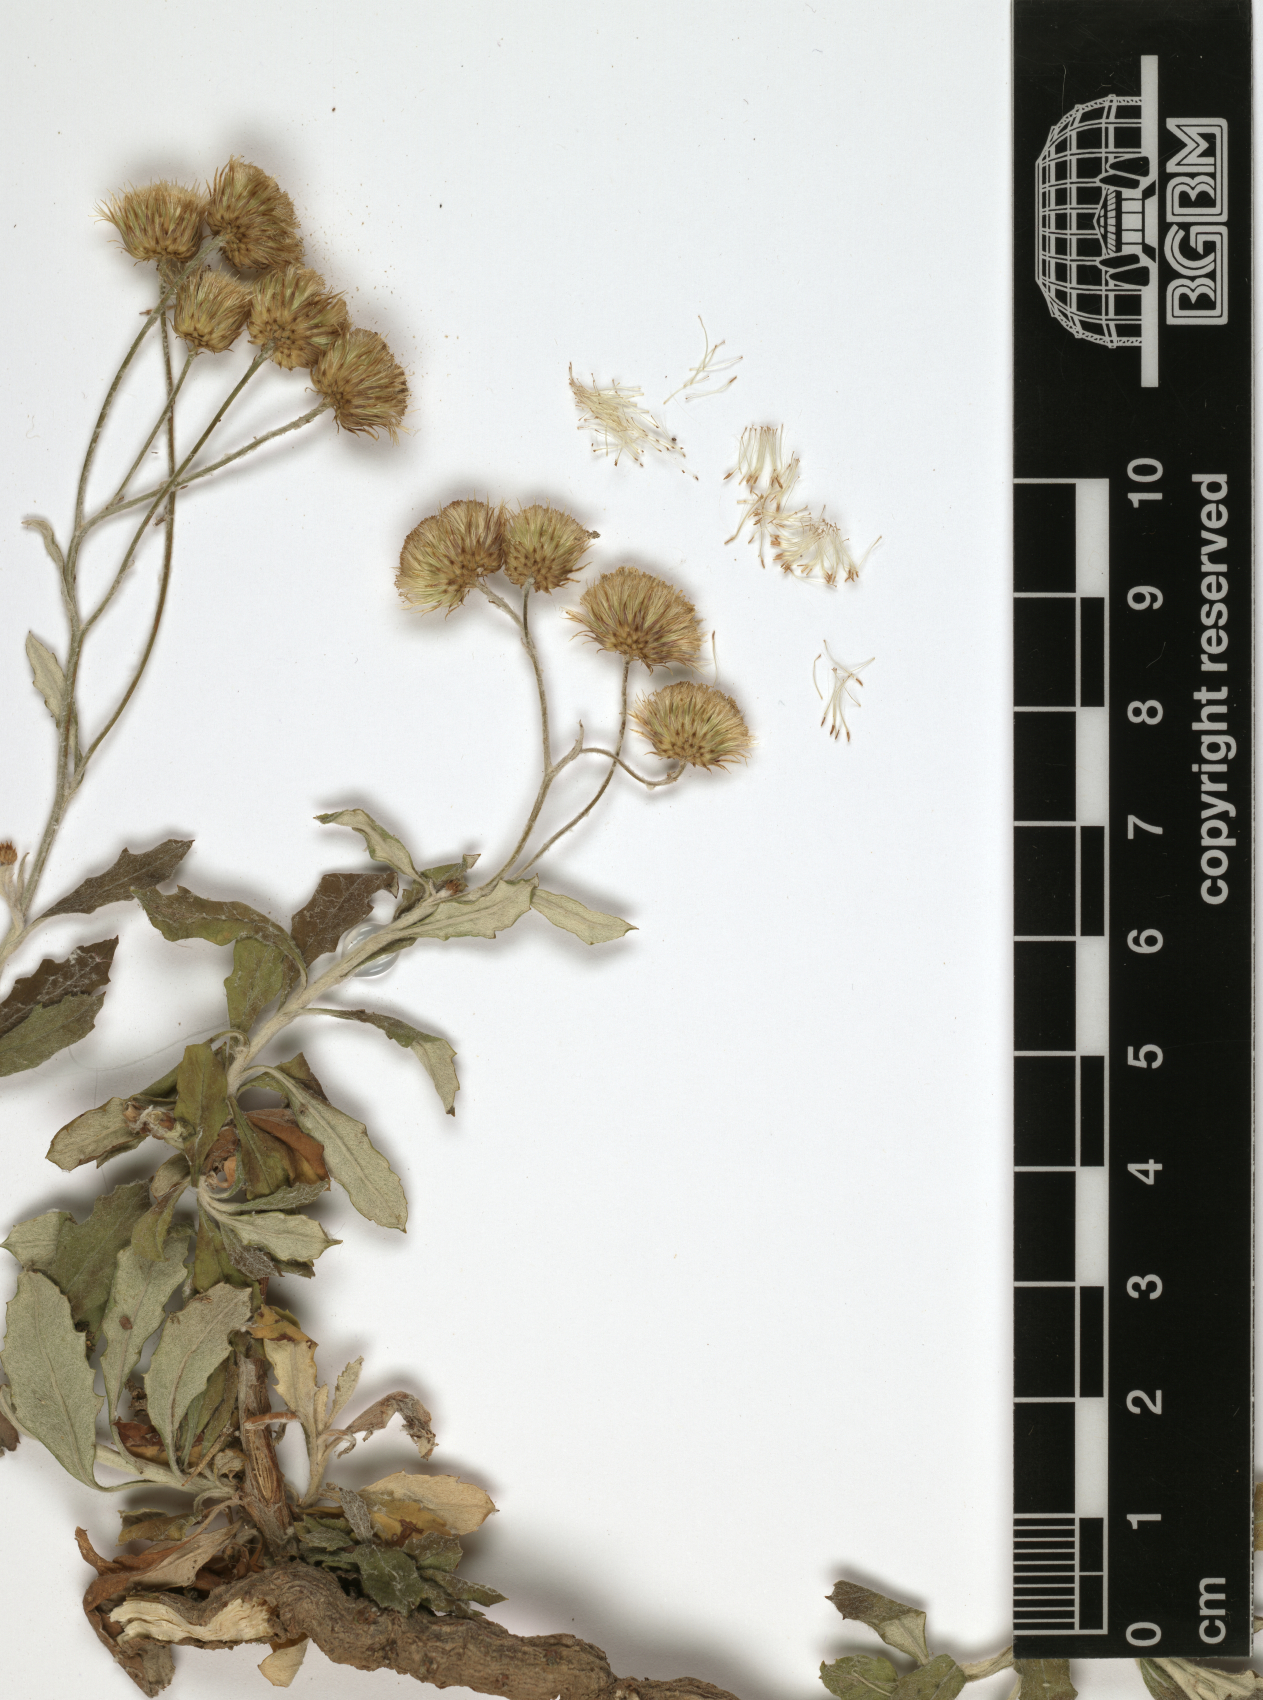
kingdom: Plantae
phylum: Tracheophyta
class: Magnoliopsida
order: Asterales
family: Asteraceae
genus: Phagnalon
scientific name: Phagnalon stenolepis
